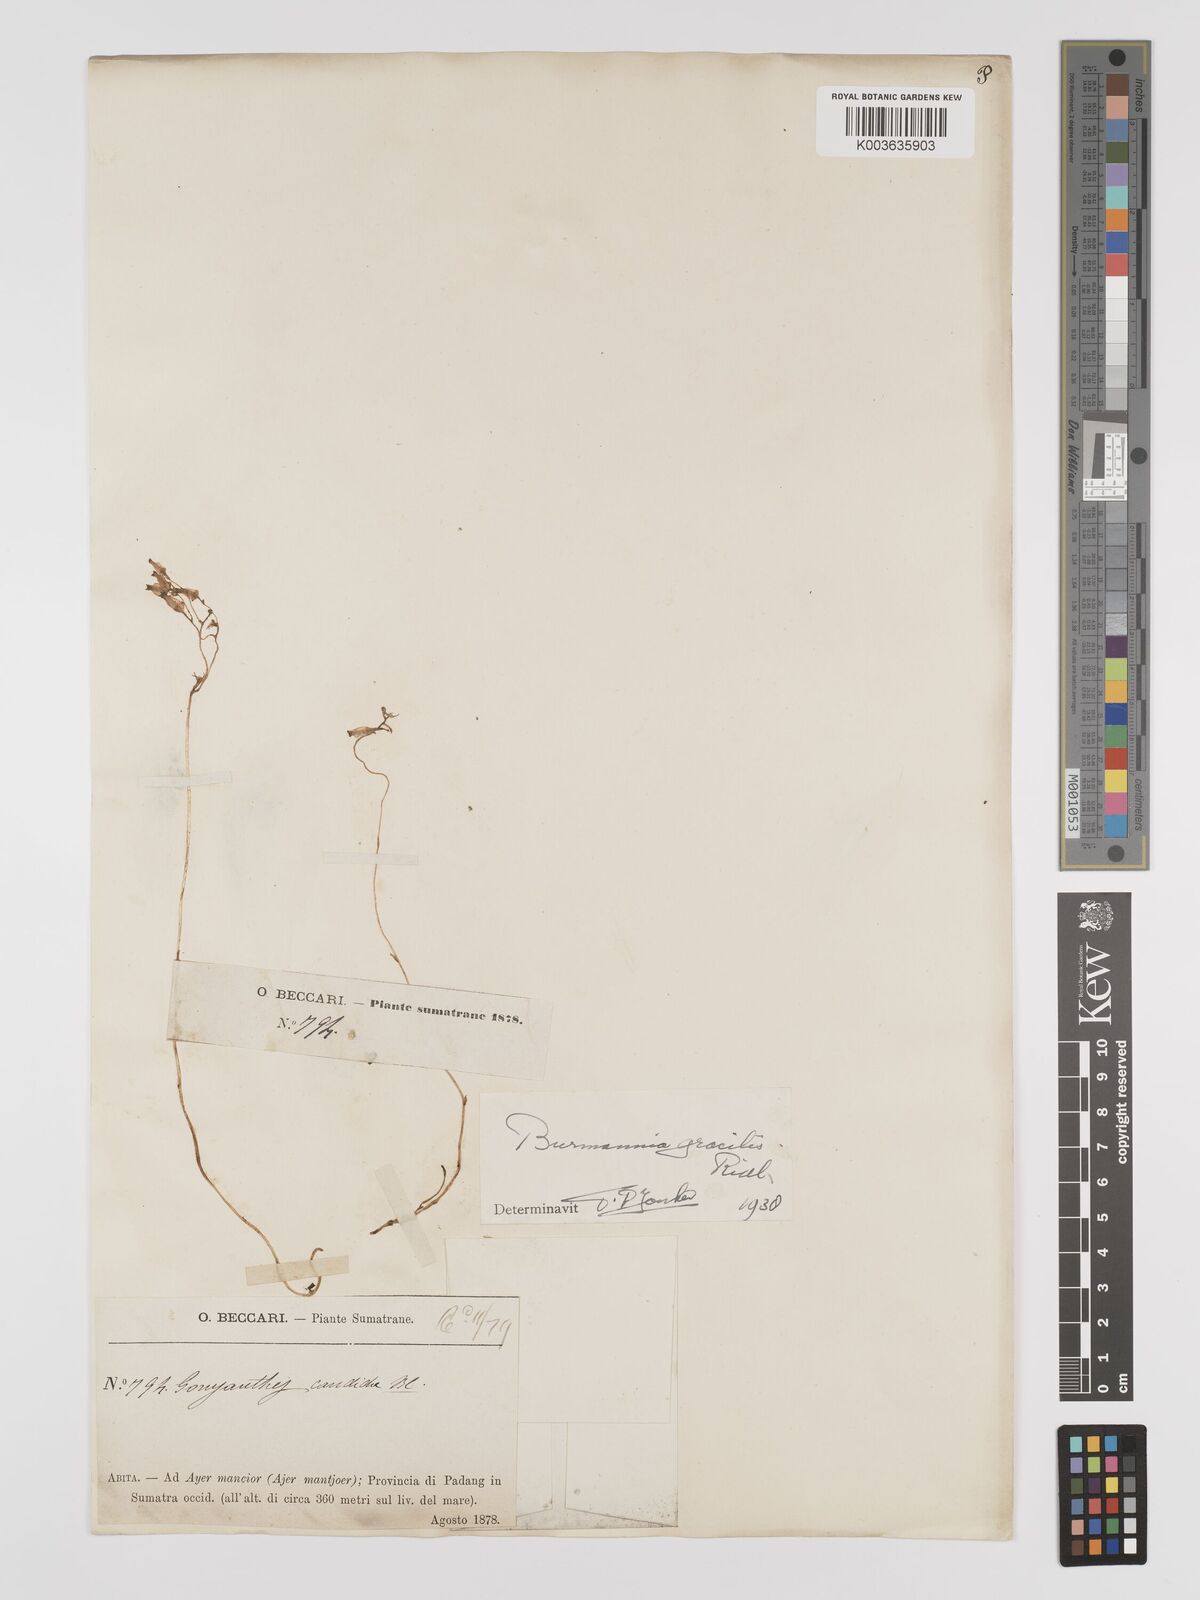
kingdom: Plantae
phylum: Tracheophyta
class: Liliopsida
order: Dioscoreales
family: Burmanniaceae
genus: Burmannia
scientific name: Burmannia lutescens
